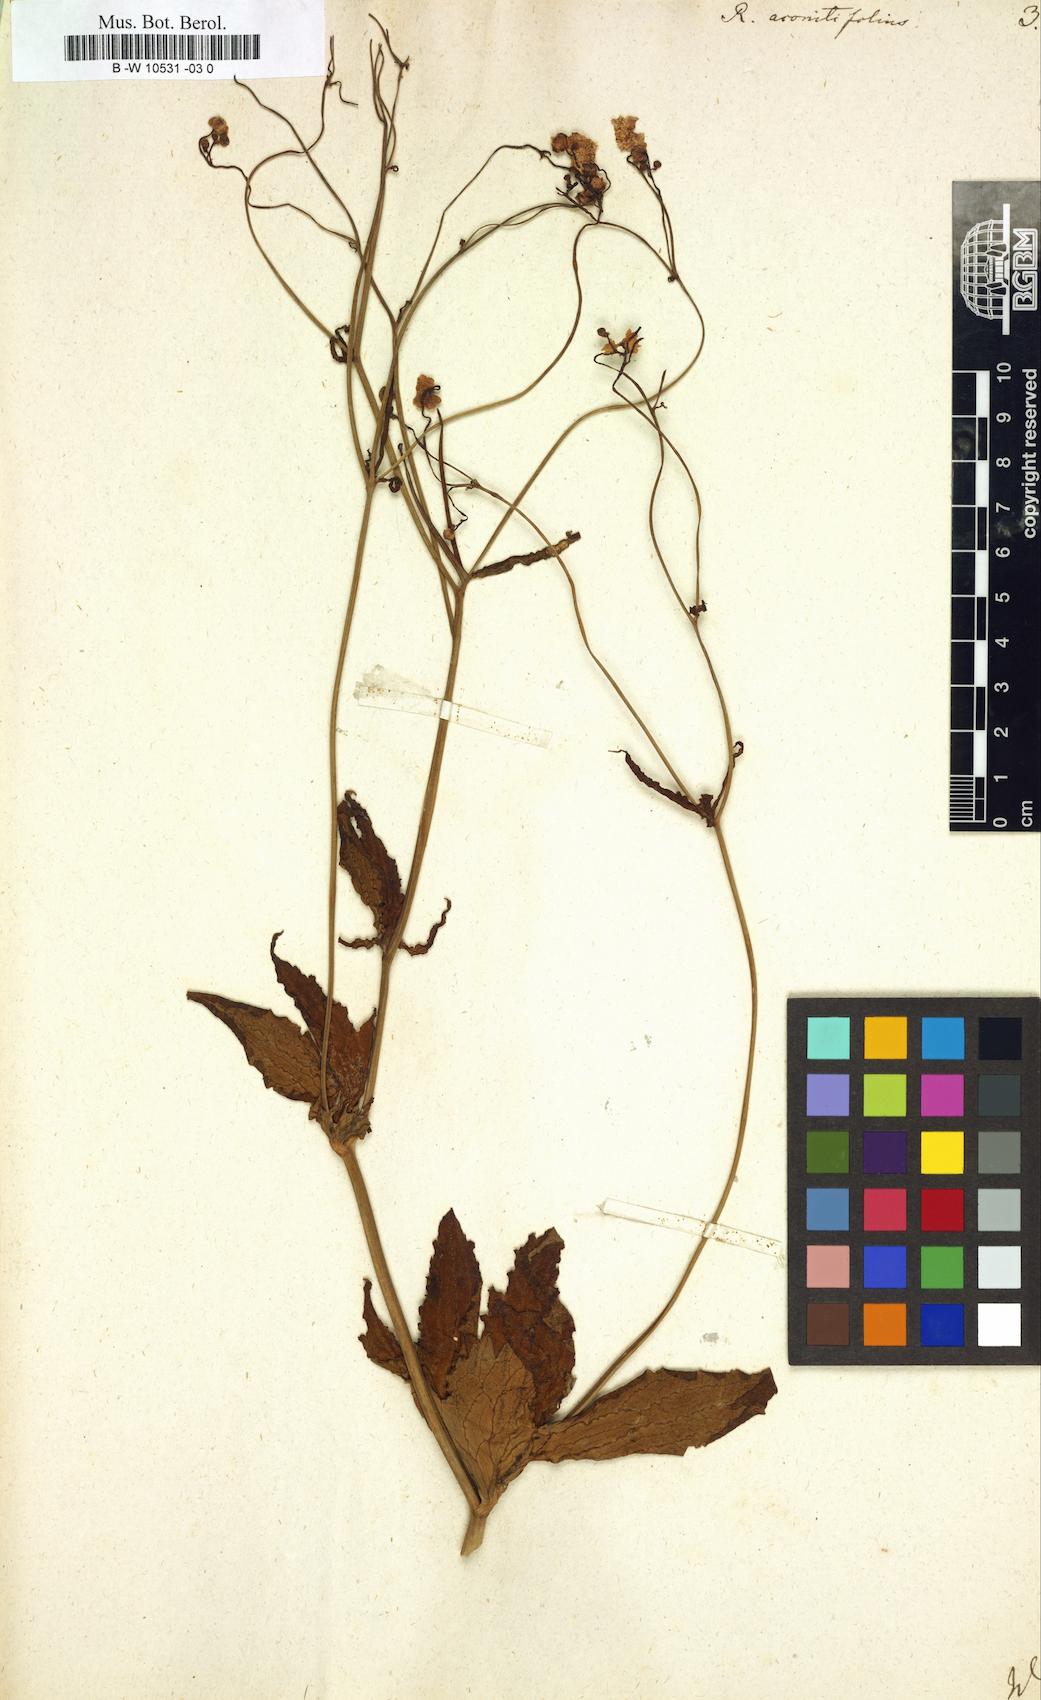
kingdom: Plantae
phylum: Tracheophyta
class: Magnoliopsida
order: Ranunculales
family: Ranunculaceae
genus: Ranunculus
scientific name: Ranunculus aconitifolius
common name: Aconite-leaved buttercup
